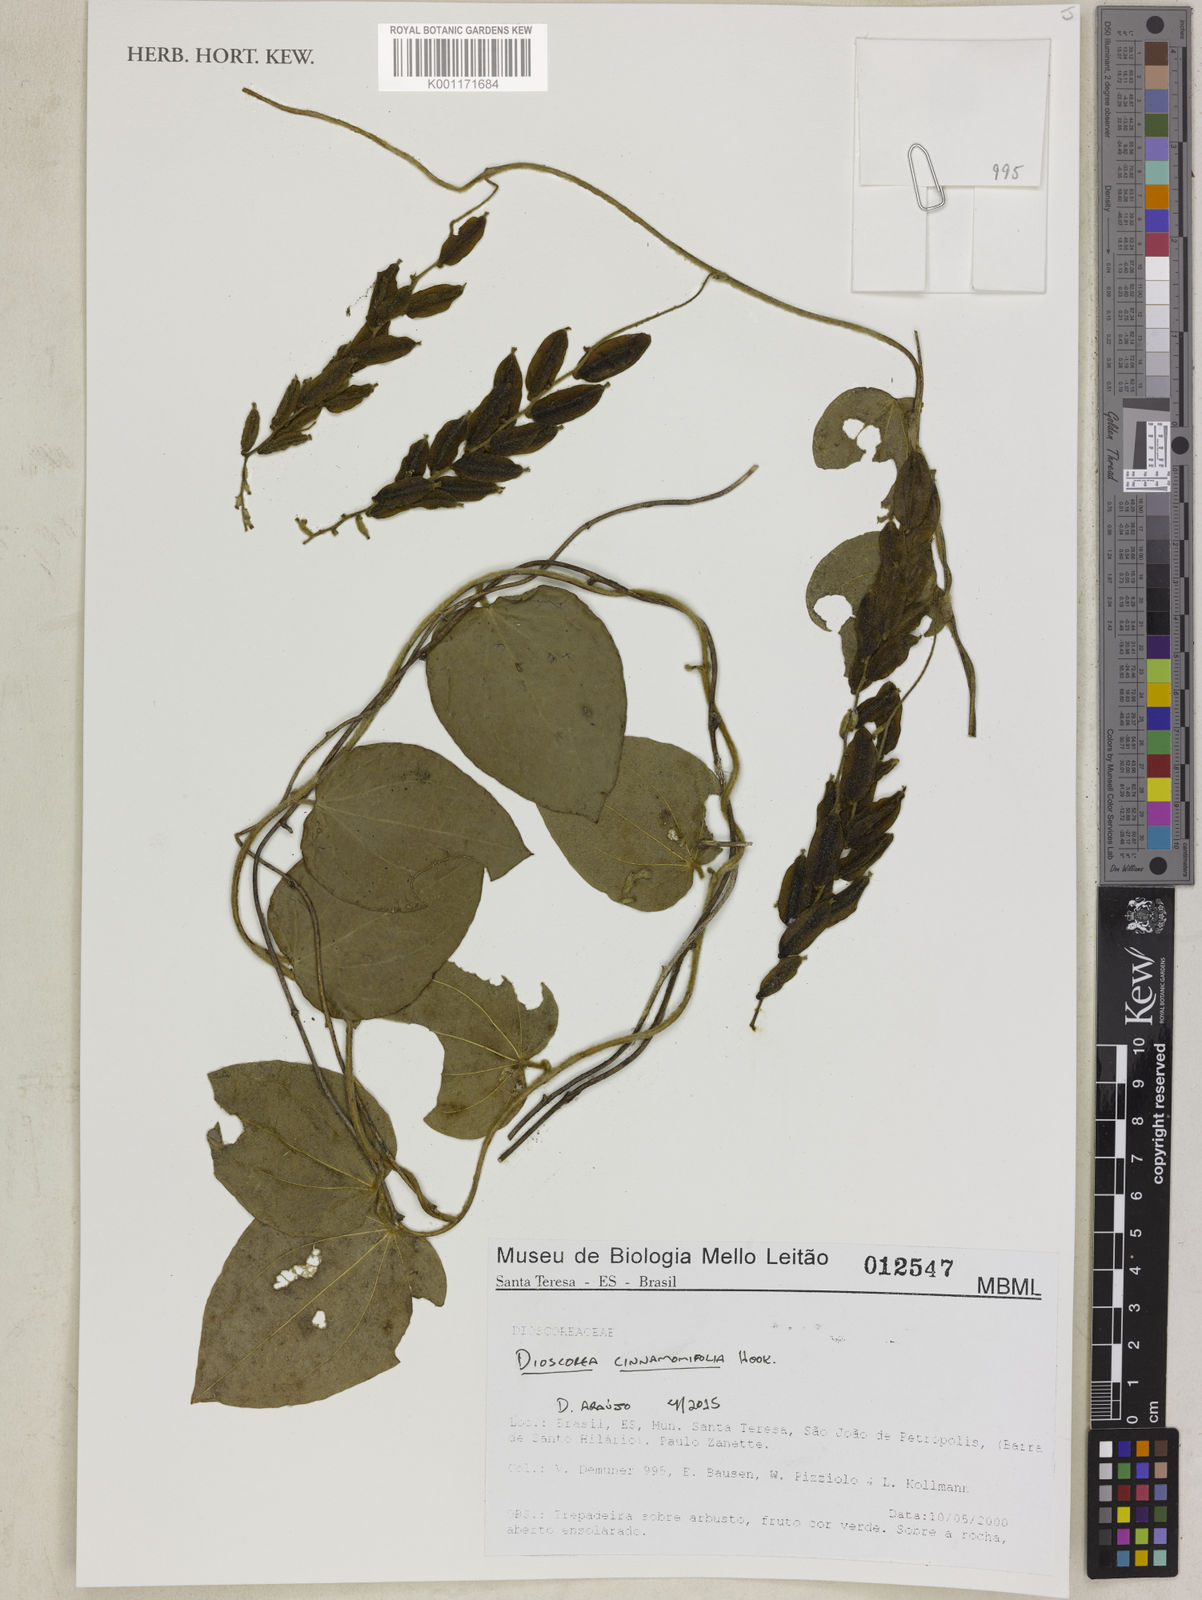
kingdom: Plantae
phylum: Tracheophyta
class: Liliopsida
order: Dioscoreales
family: Dioscoreaceae
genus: Dioscorea
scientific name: Dioscorea cinnamomifolia
